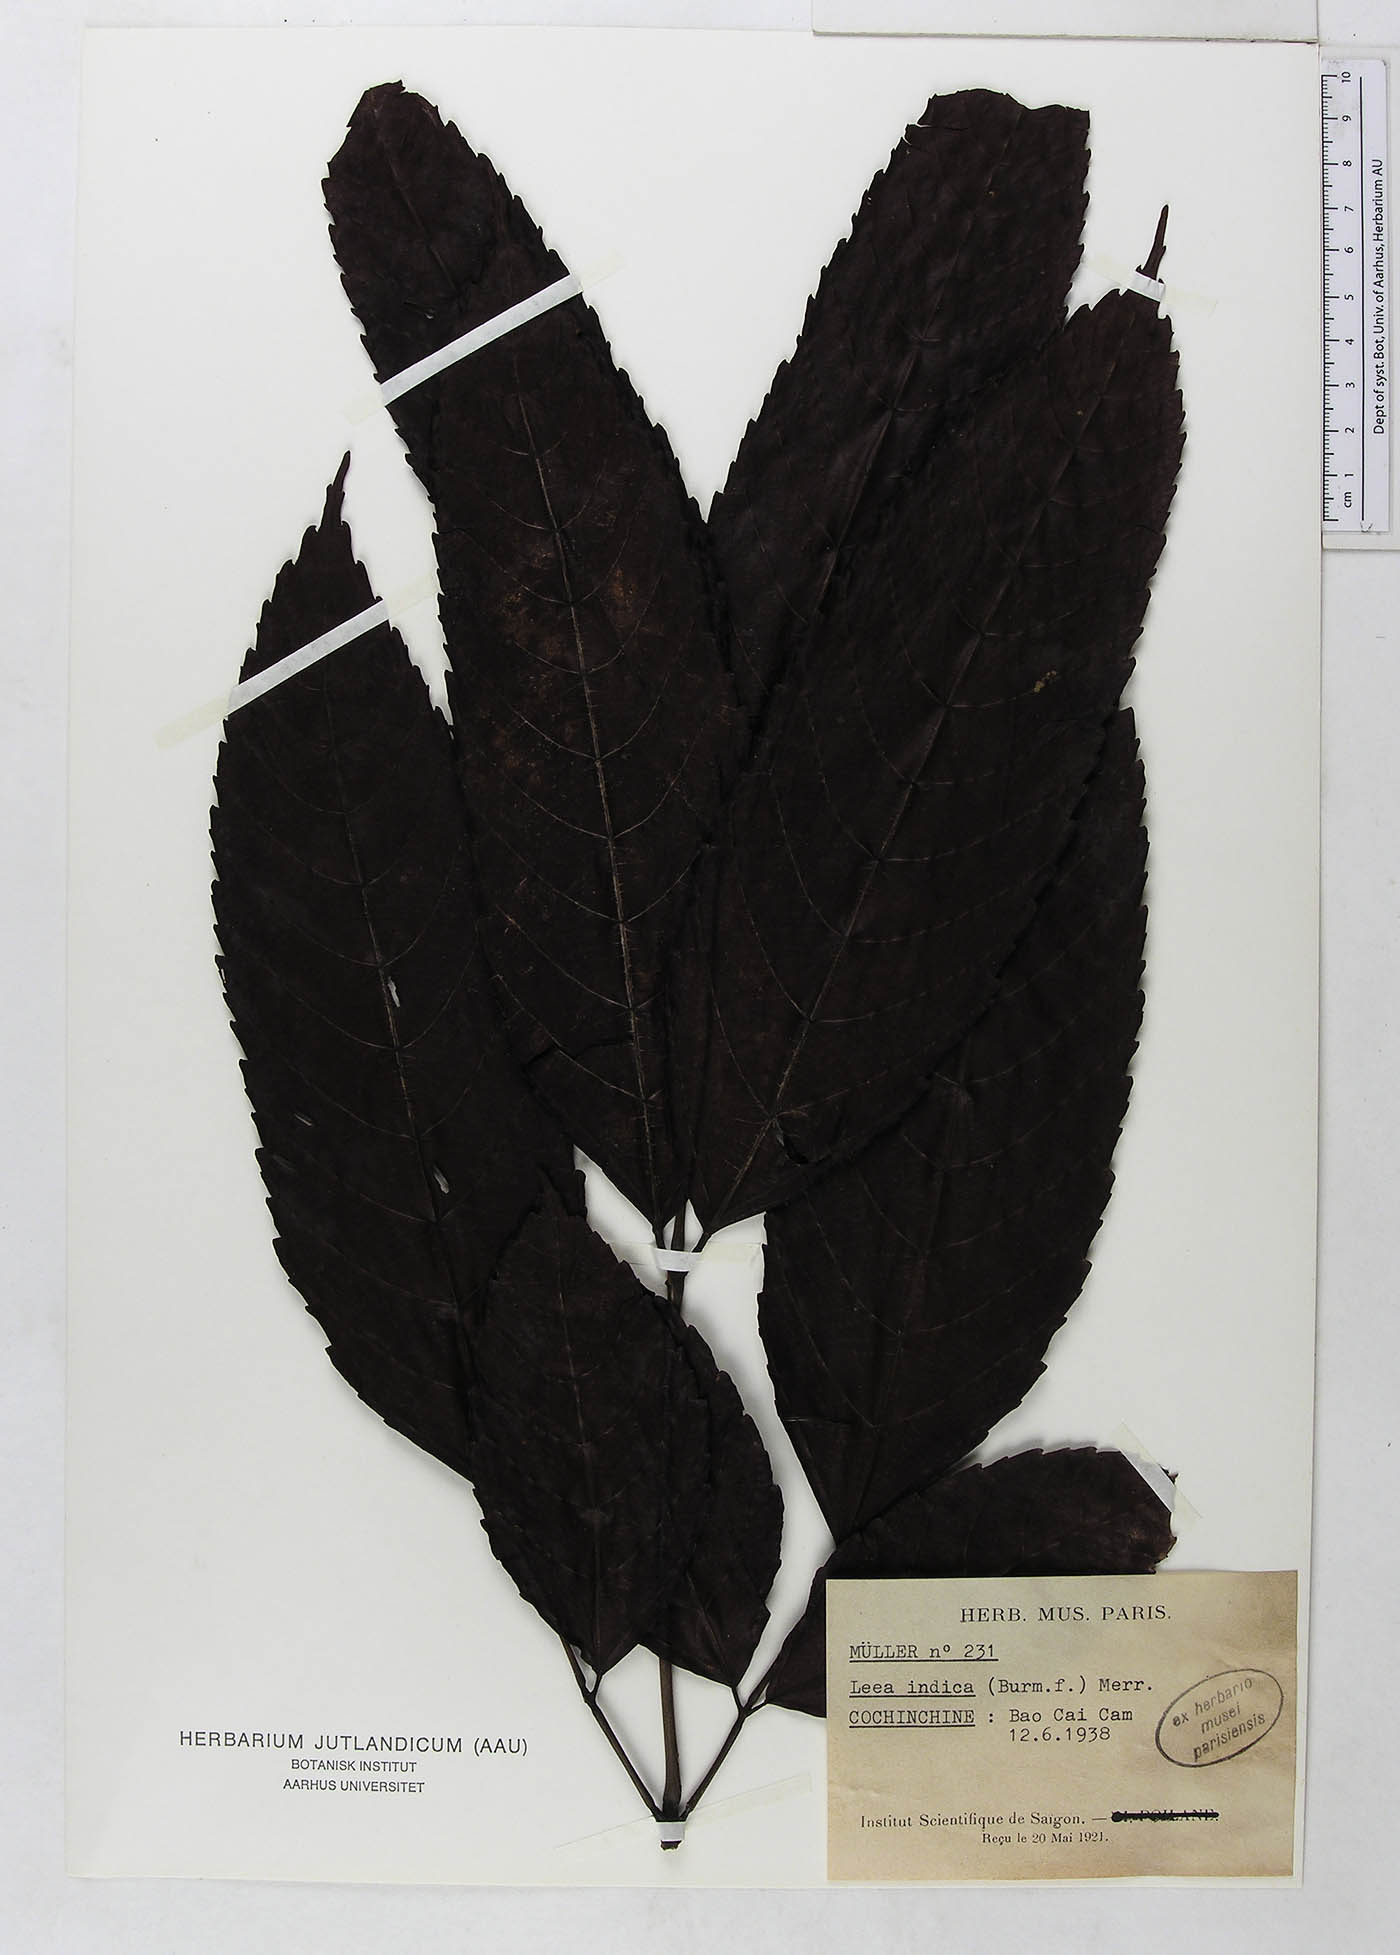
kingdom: Plantae
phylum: Tracheophyta
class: Magnoliopsida
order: Vitales
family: Vitaceae
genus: Leea
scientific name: Leea indica
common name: Bandicoot-berry
